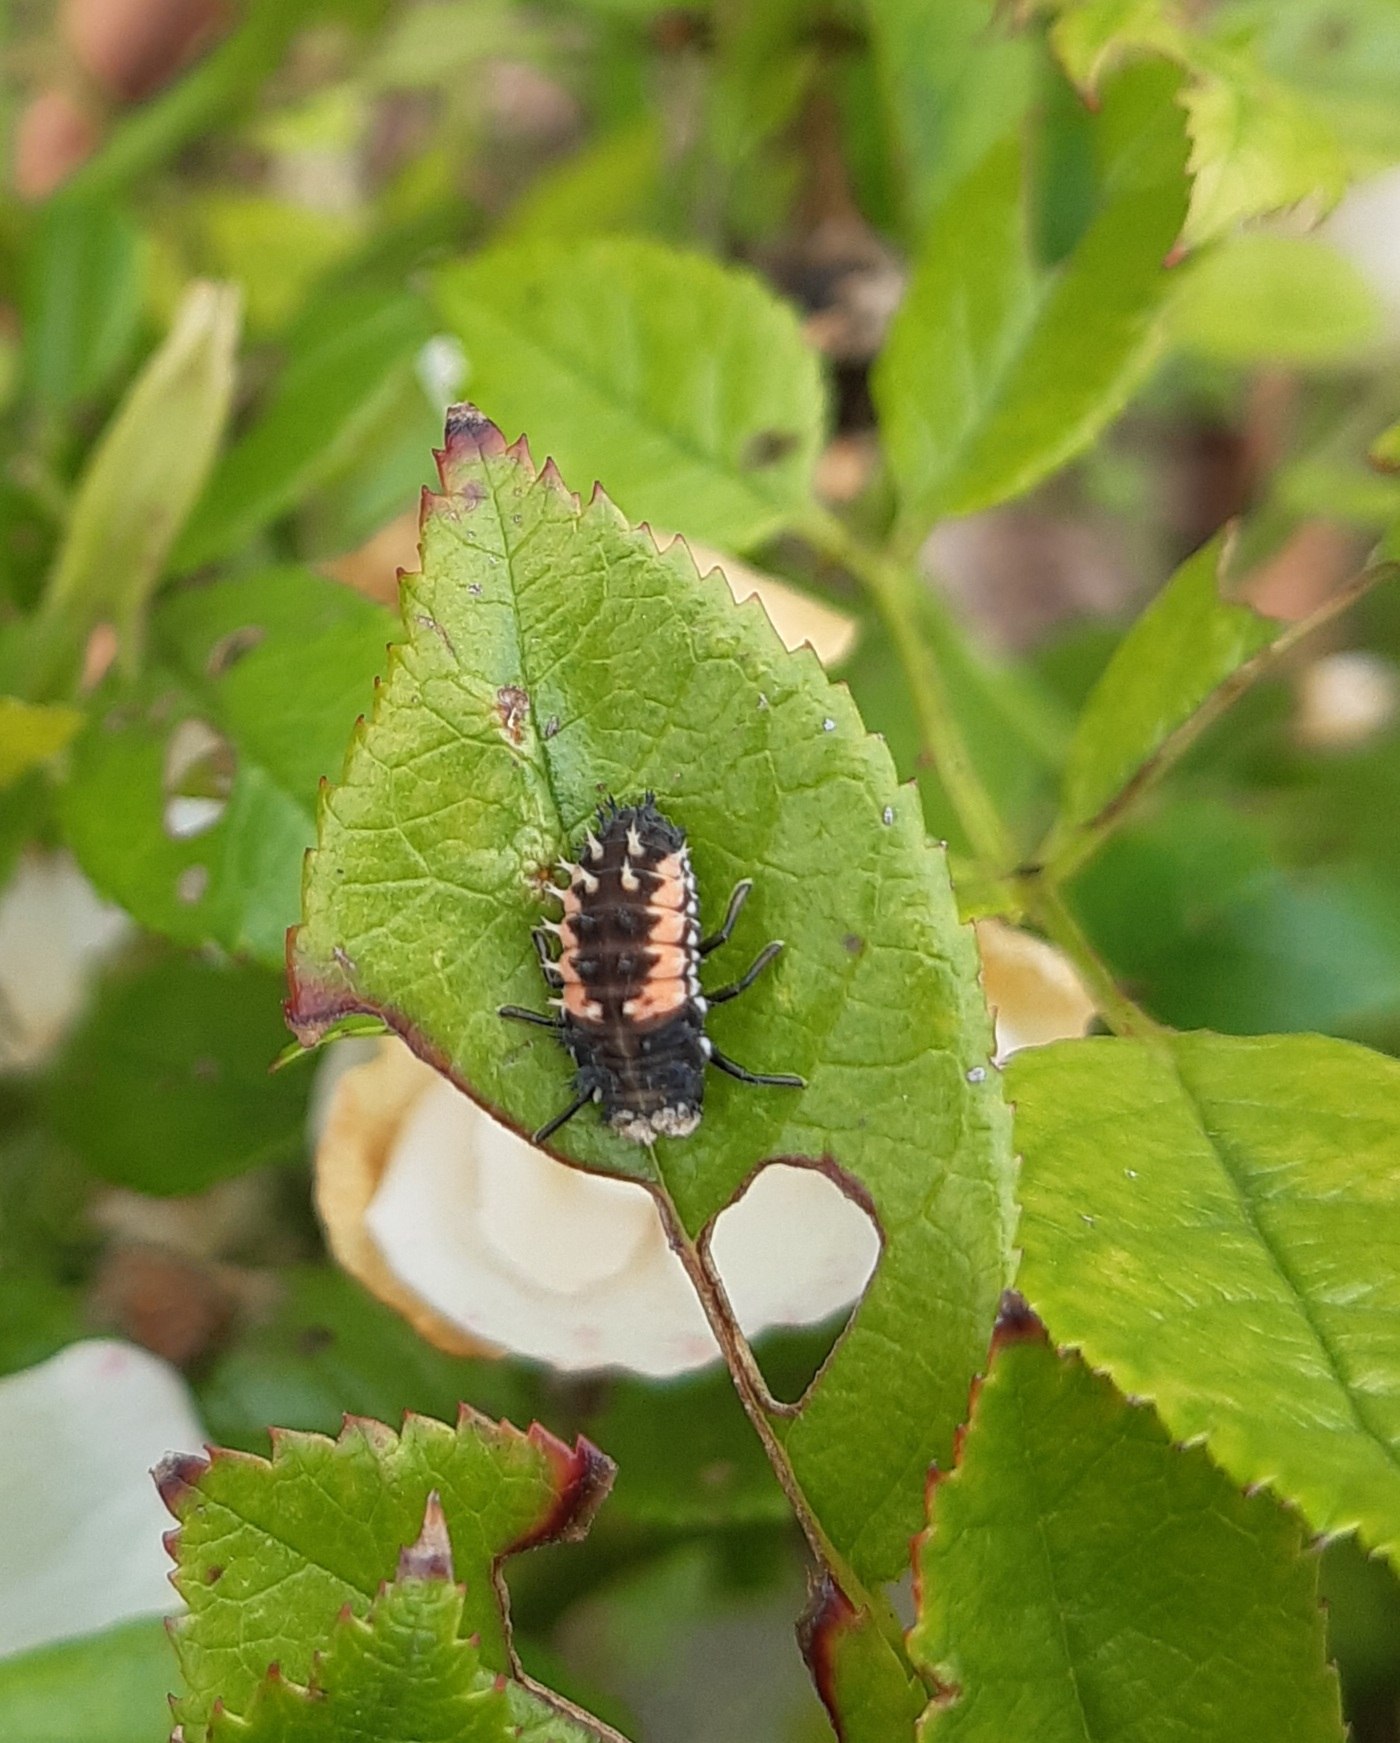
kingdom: Animalia
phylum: Arthropoda
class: Insecta
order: Coleoptera
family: Coccinellidae
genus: Harmonia
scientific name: Harmonia axyridis
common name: Harlekinmariehøne
